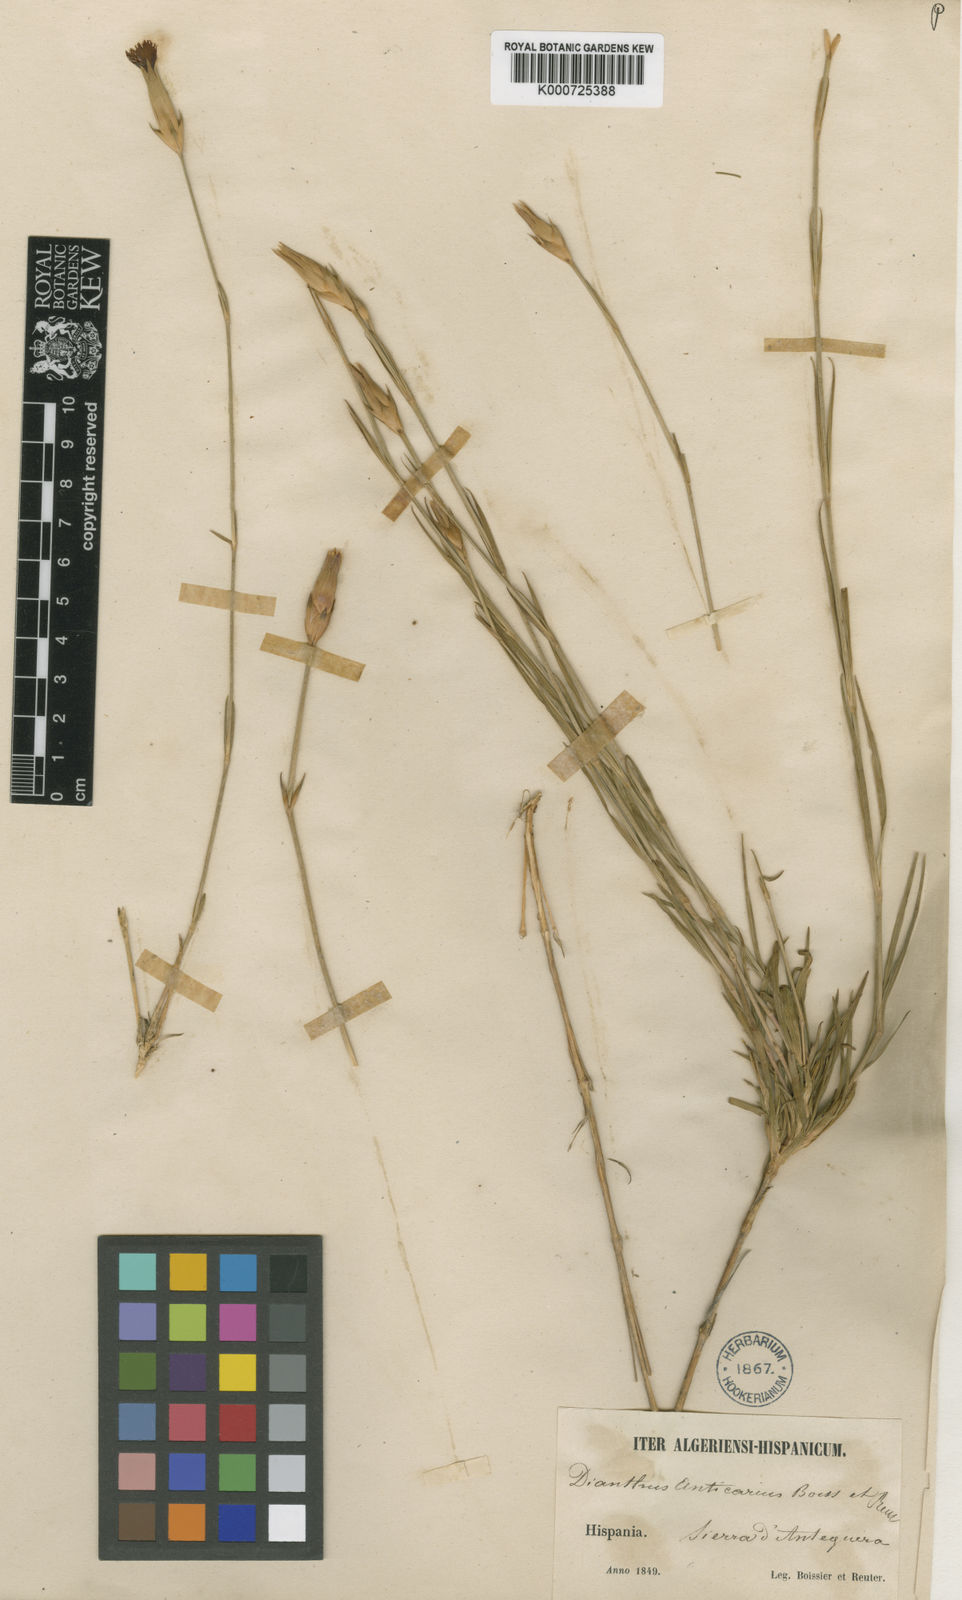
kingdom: Plantae
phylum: Tracheophyta
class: Magnoliopsida
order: Caryophyllales
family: Caryophyllaceae
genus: Dianthus
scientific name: Dianthus anticarius
